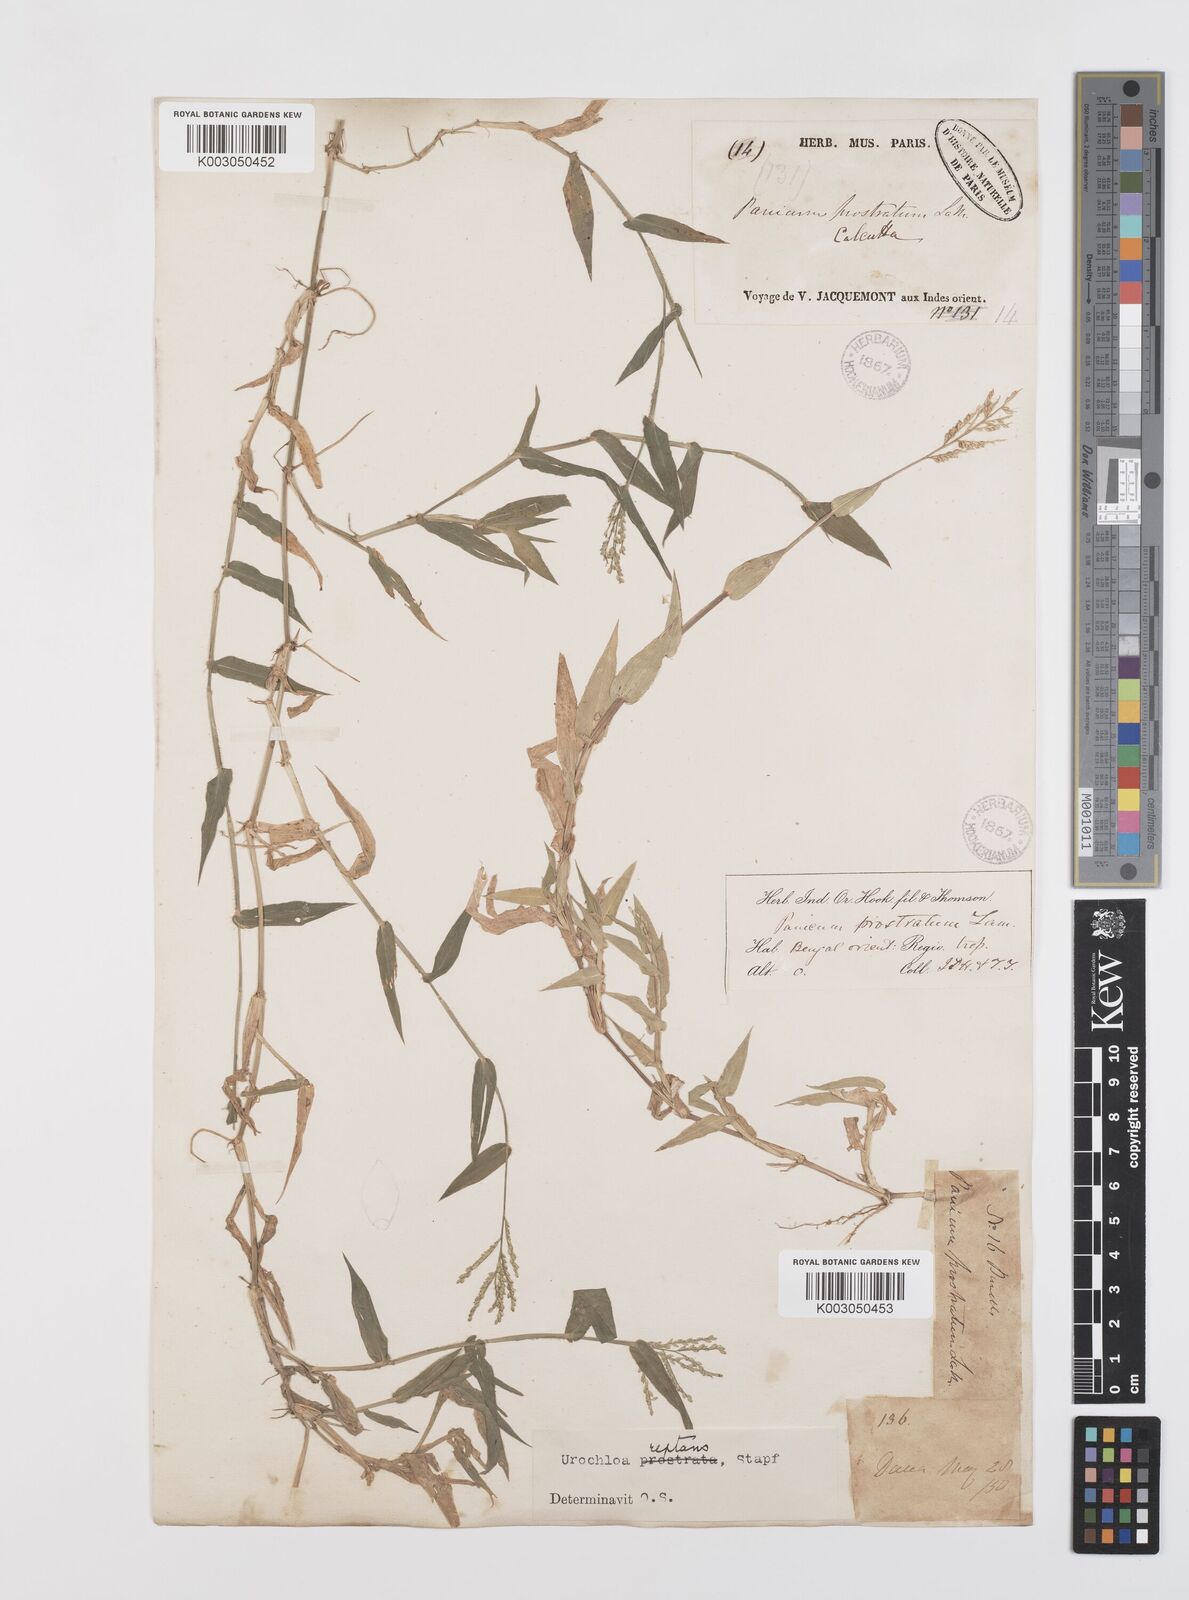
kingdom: Plantae
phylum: Tracheophyta
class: Liliopsida
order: Poales
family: Poaceae
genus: Urochloa
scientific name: Urochloa reptans
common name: Sprawling signalgrass
